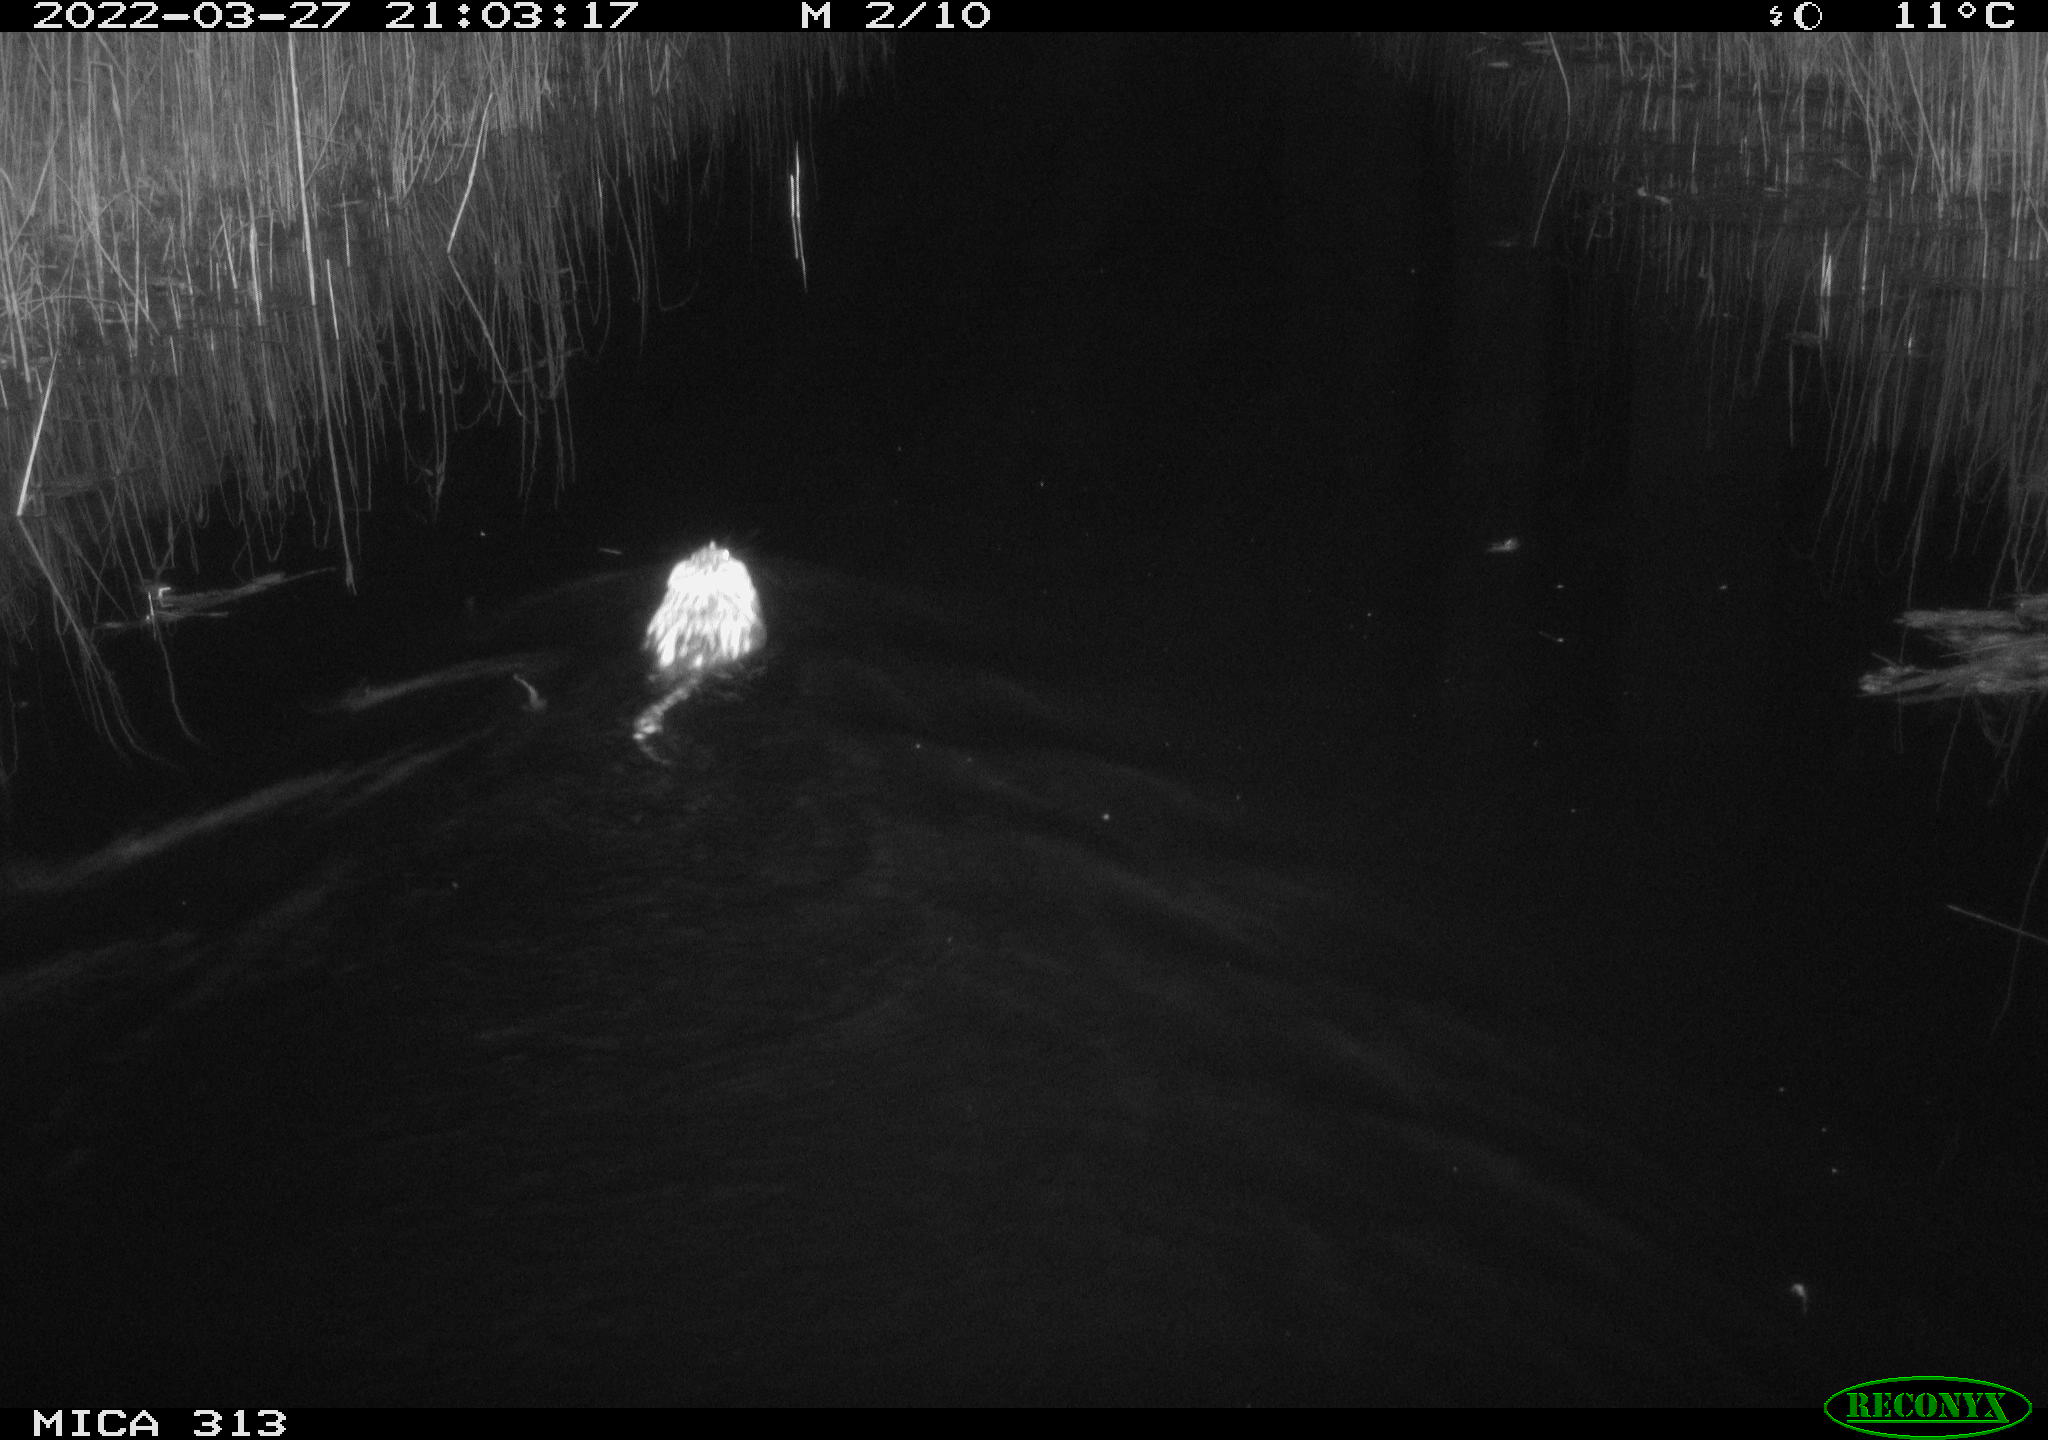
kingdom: Animalia
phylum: Chordata
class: Mammalia
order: Rodentia
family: Cricetidae
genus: Ondatra
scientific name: Ondatra zibethicus
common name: Muskrat
